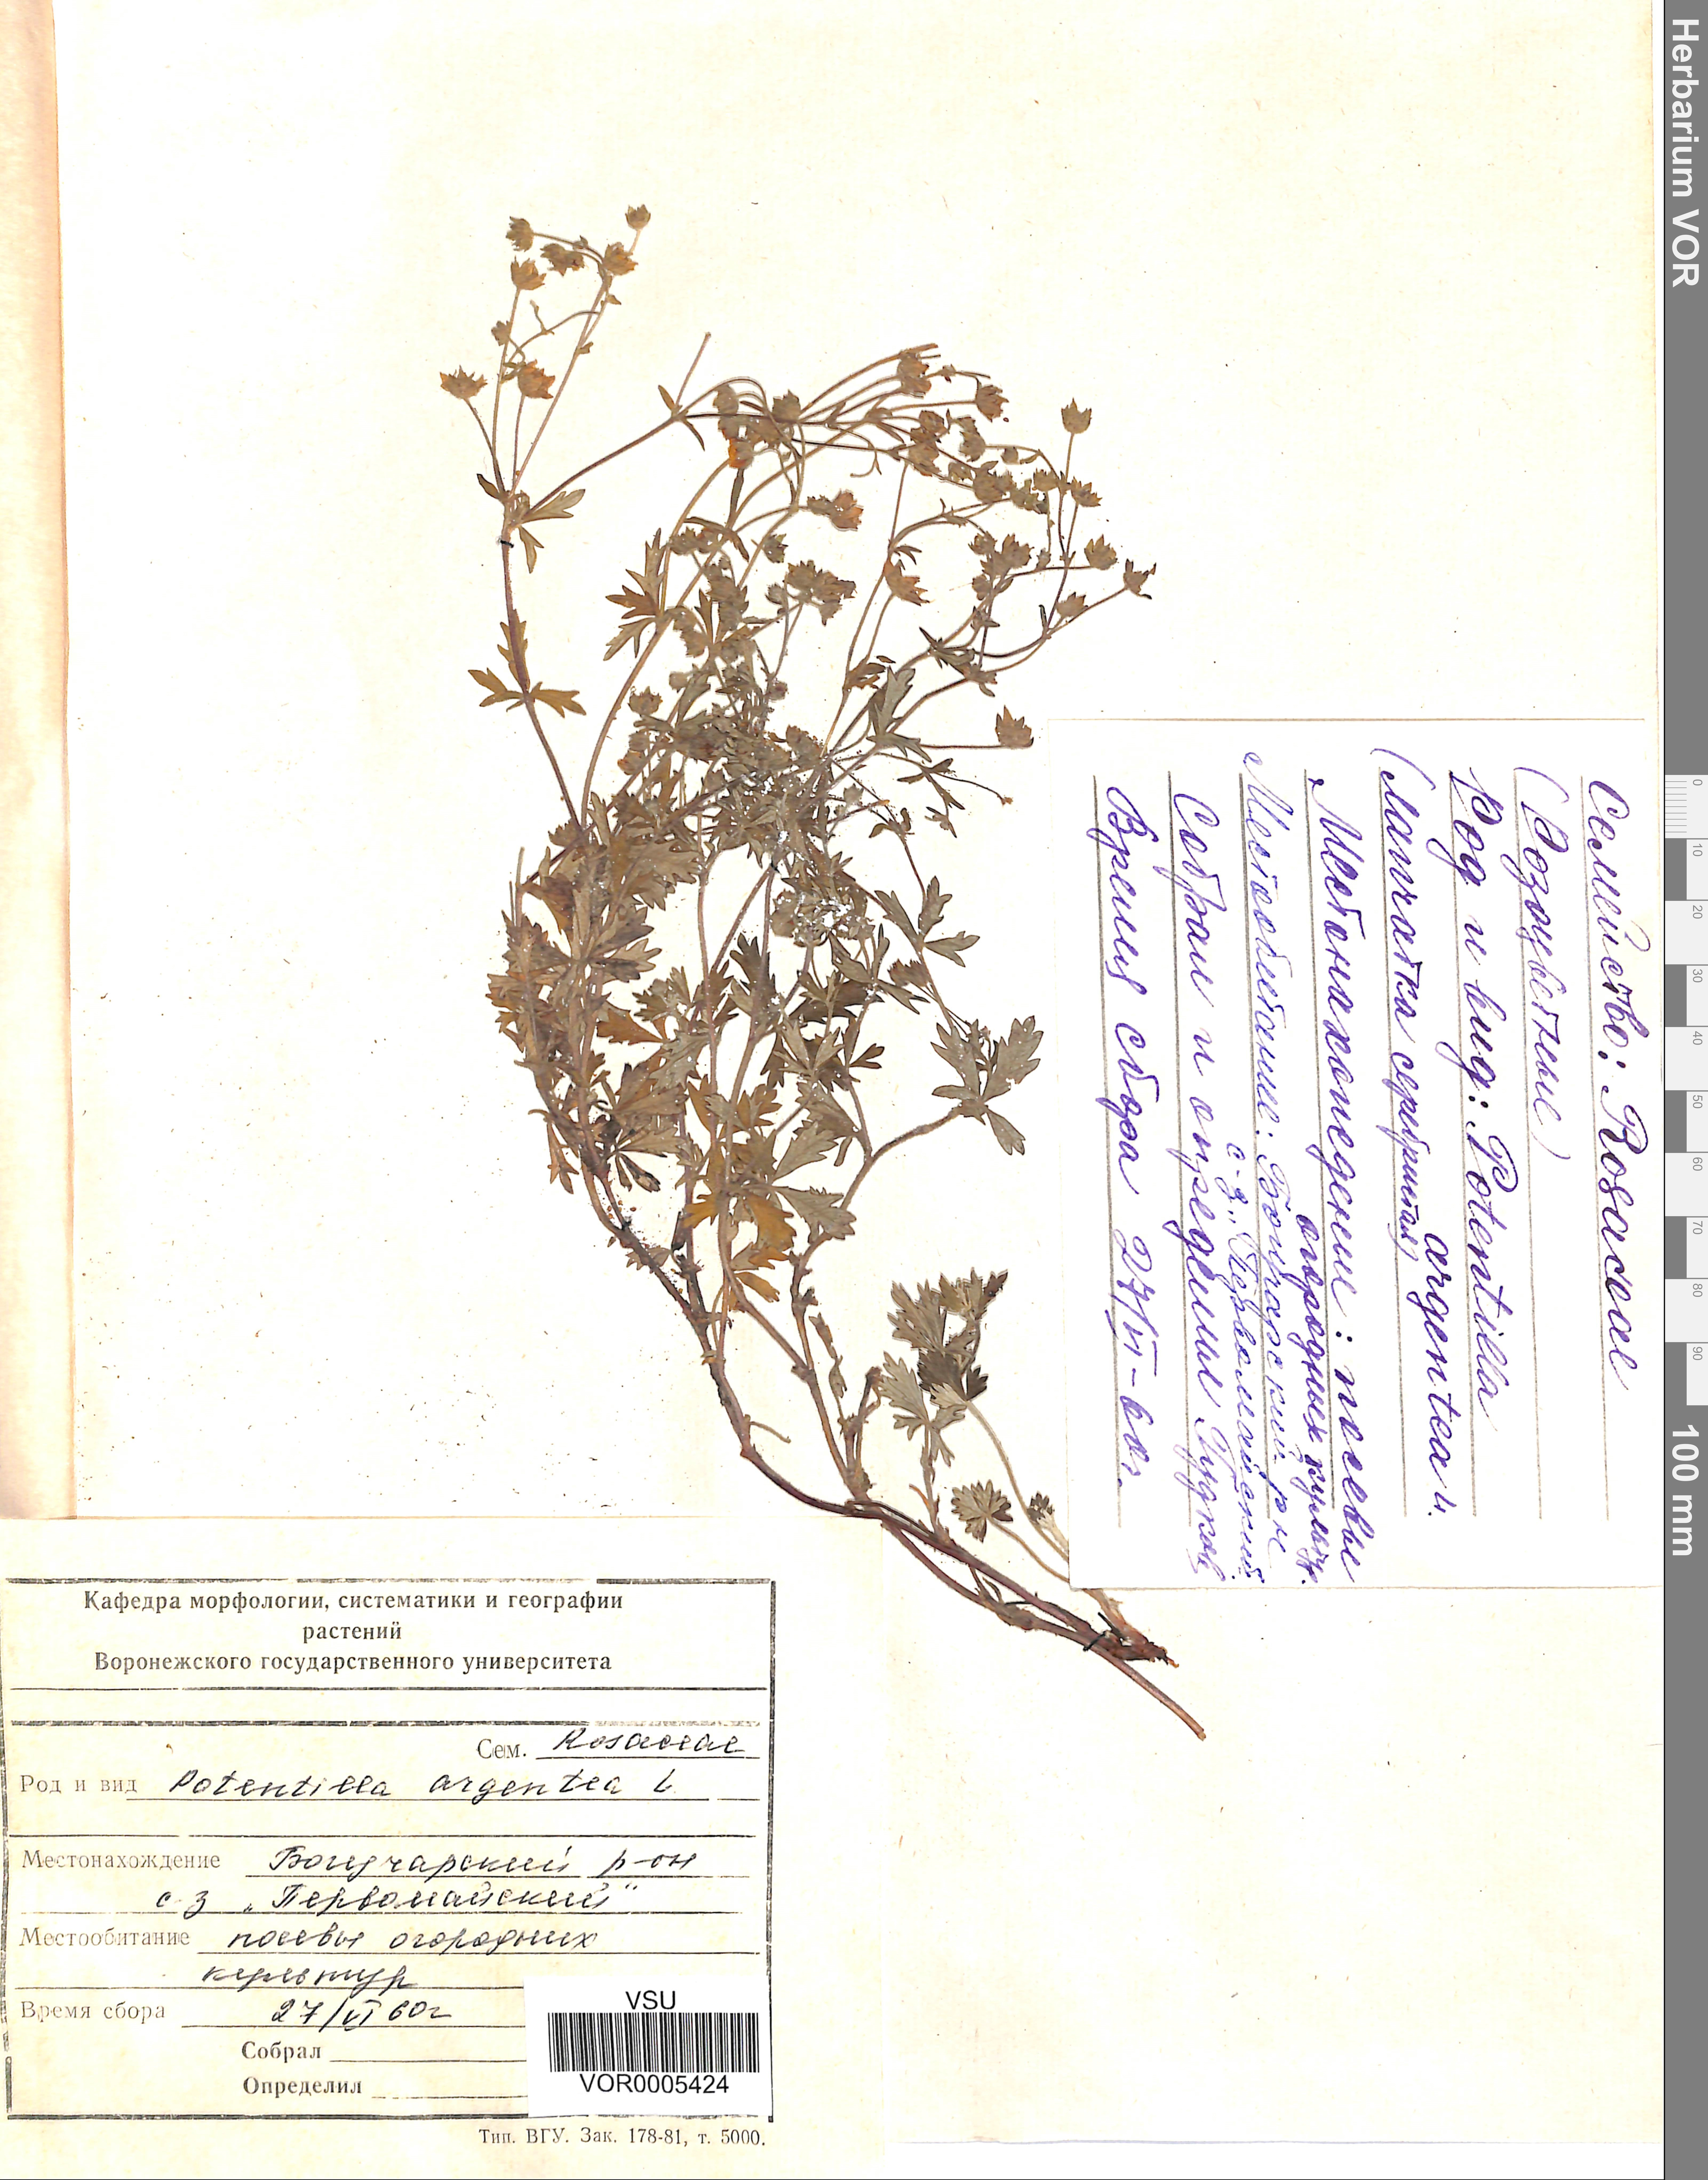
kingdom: Plantae
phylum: Tracheophyta
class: Magnoliopsida
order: Rosales
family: Rosaceae
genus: Potentilla
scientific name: Potentilla argentea
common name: Hoary cinquefoil
